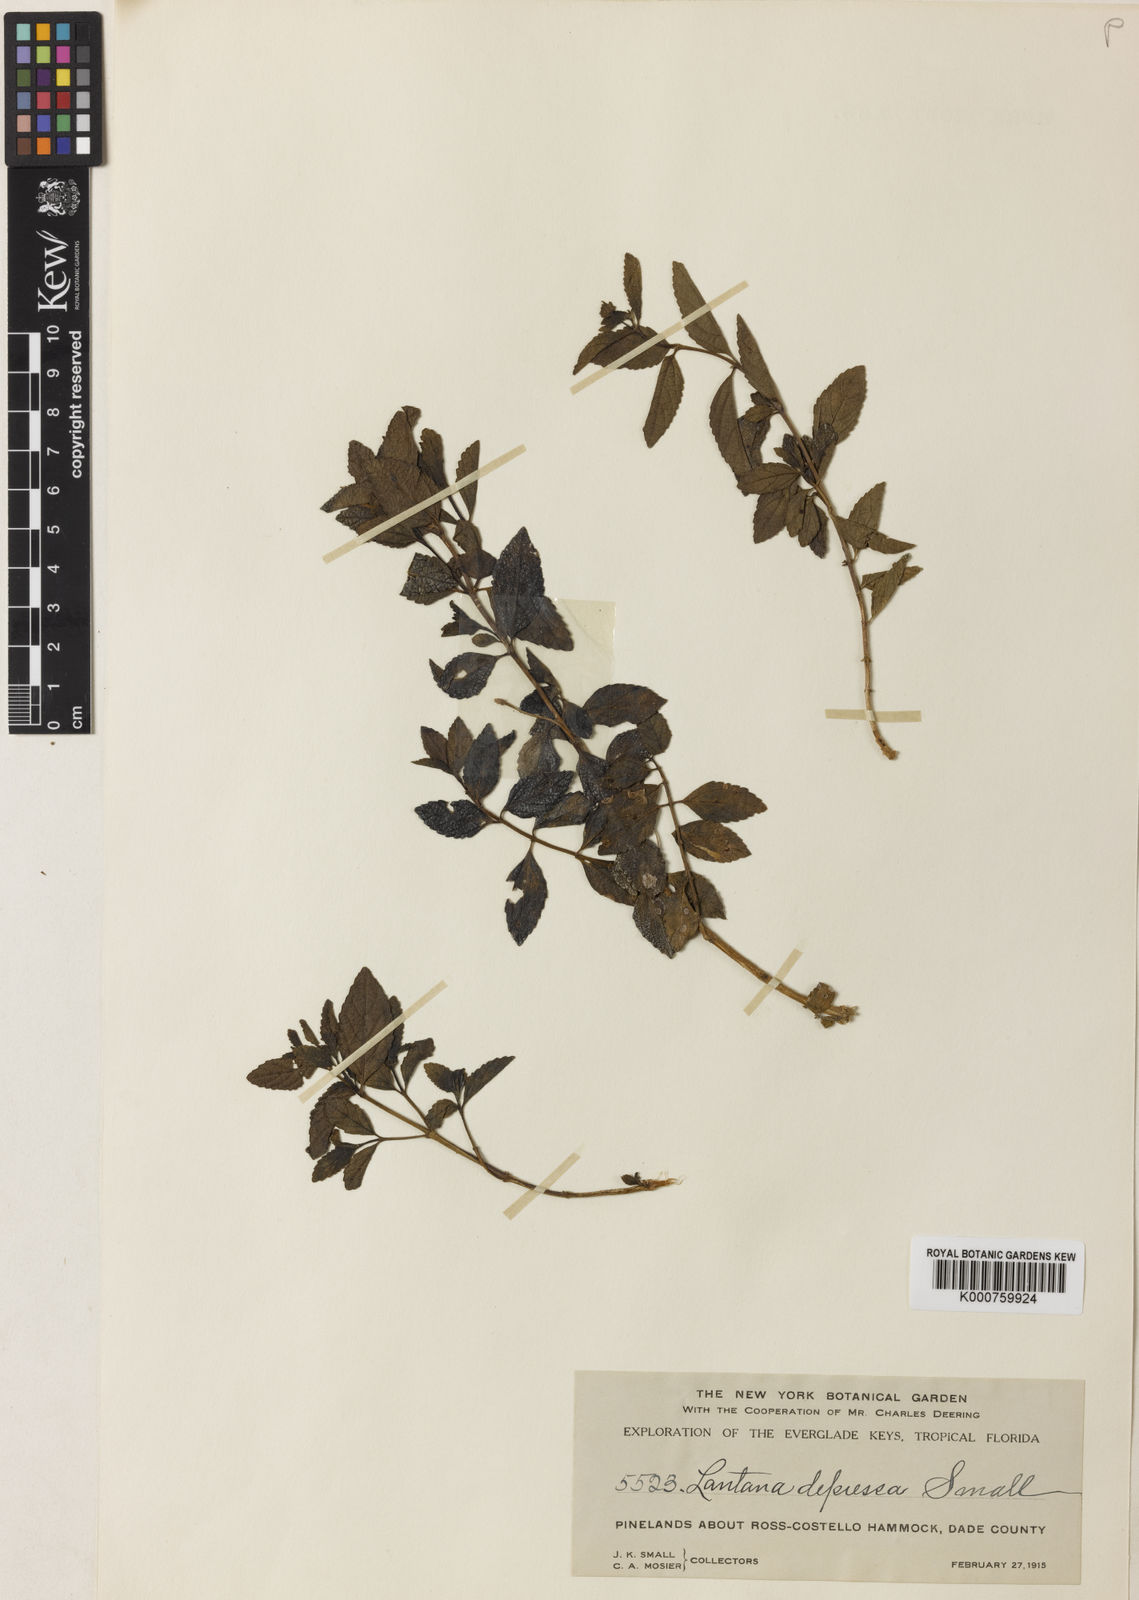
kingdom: Plantae
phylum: Tracheophyta
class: Magnoliopsida
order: Lamiales
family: Verbenaceae
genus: Lantana
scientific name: Lantana sandersii
